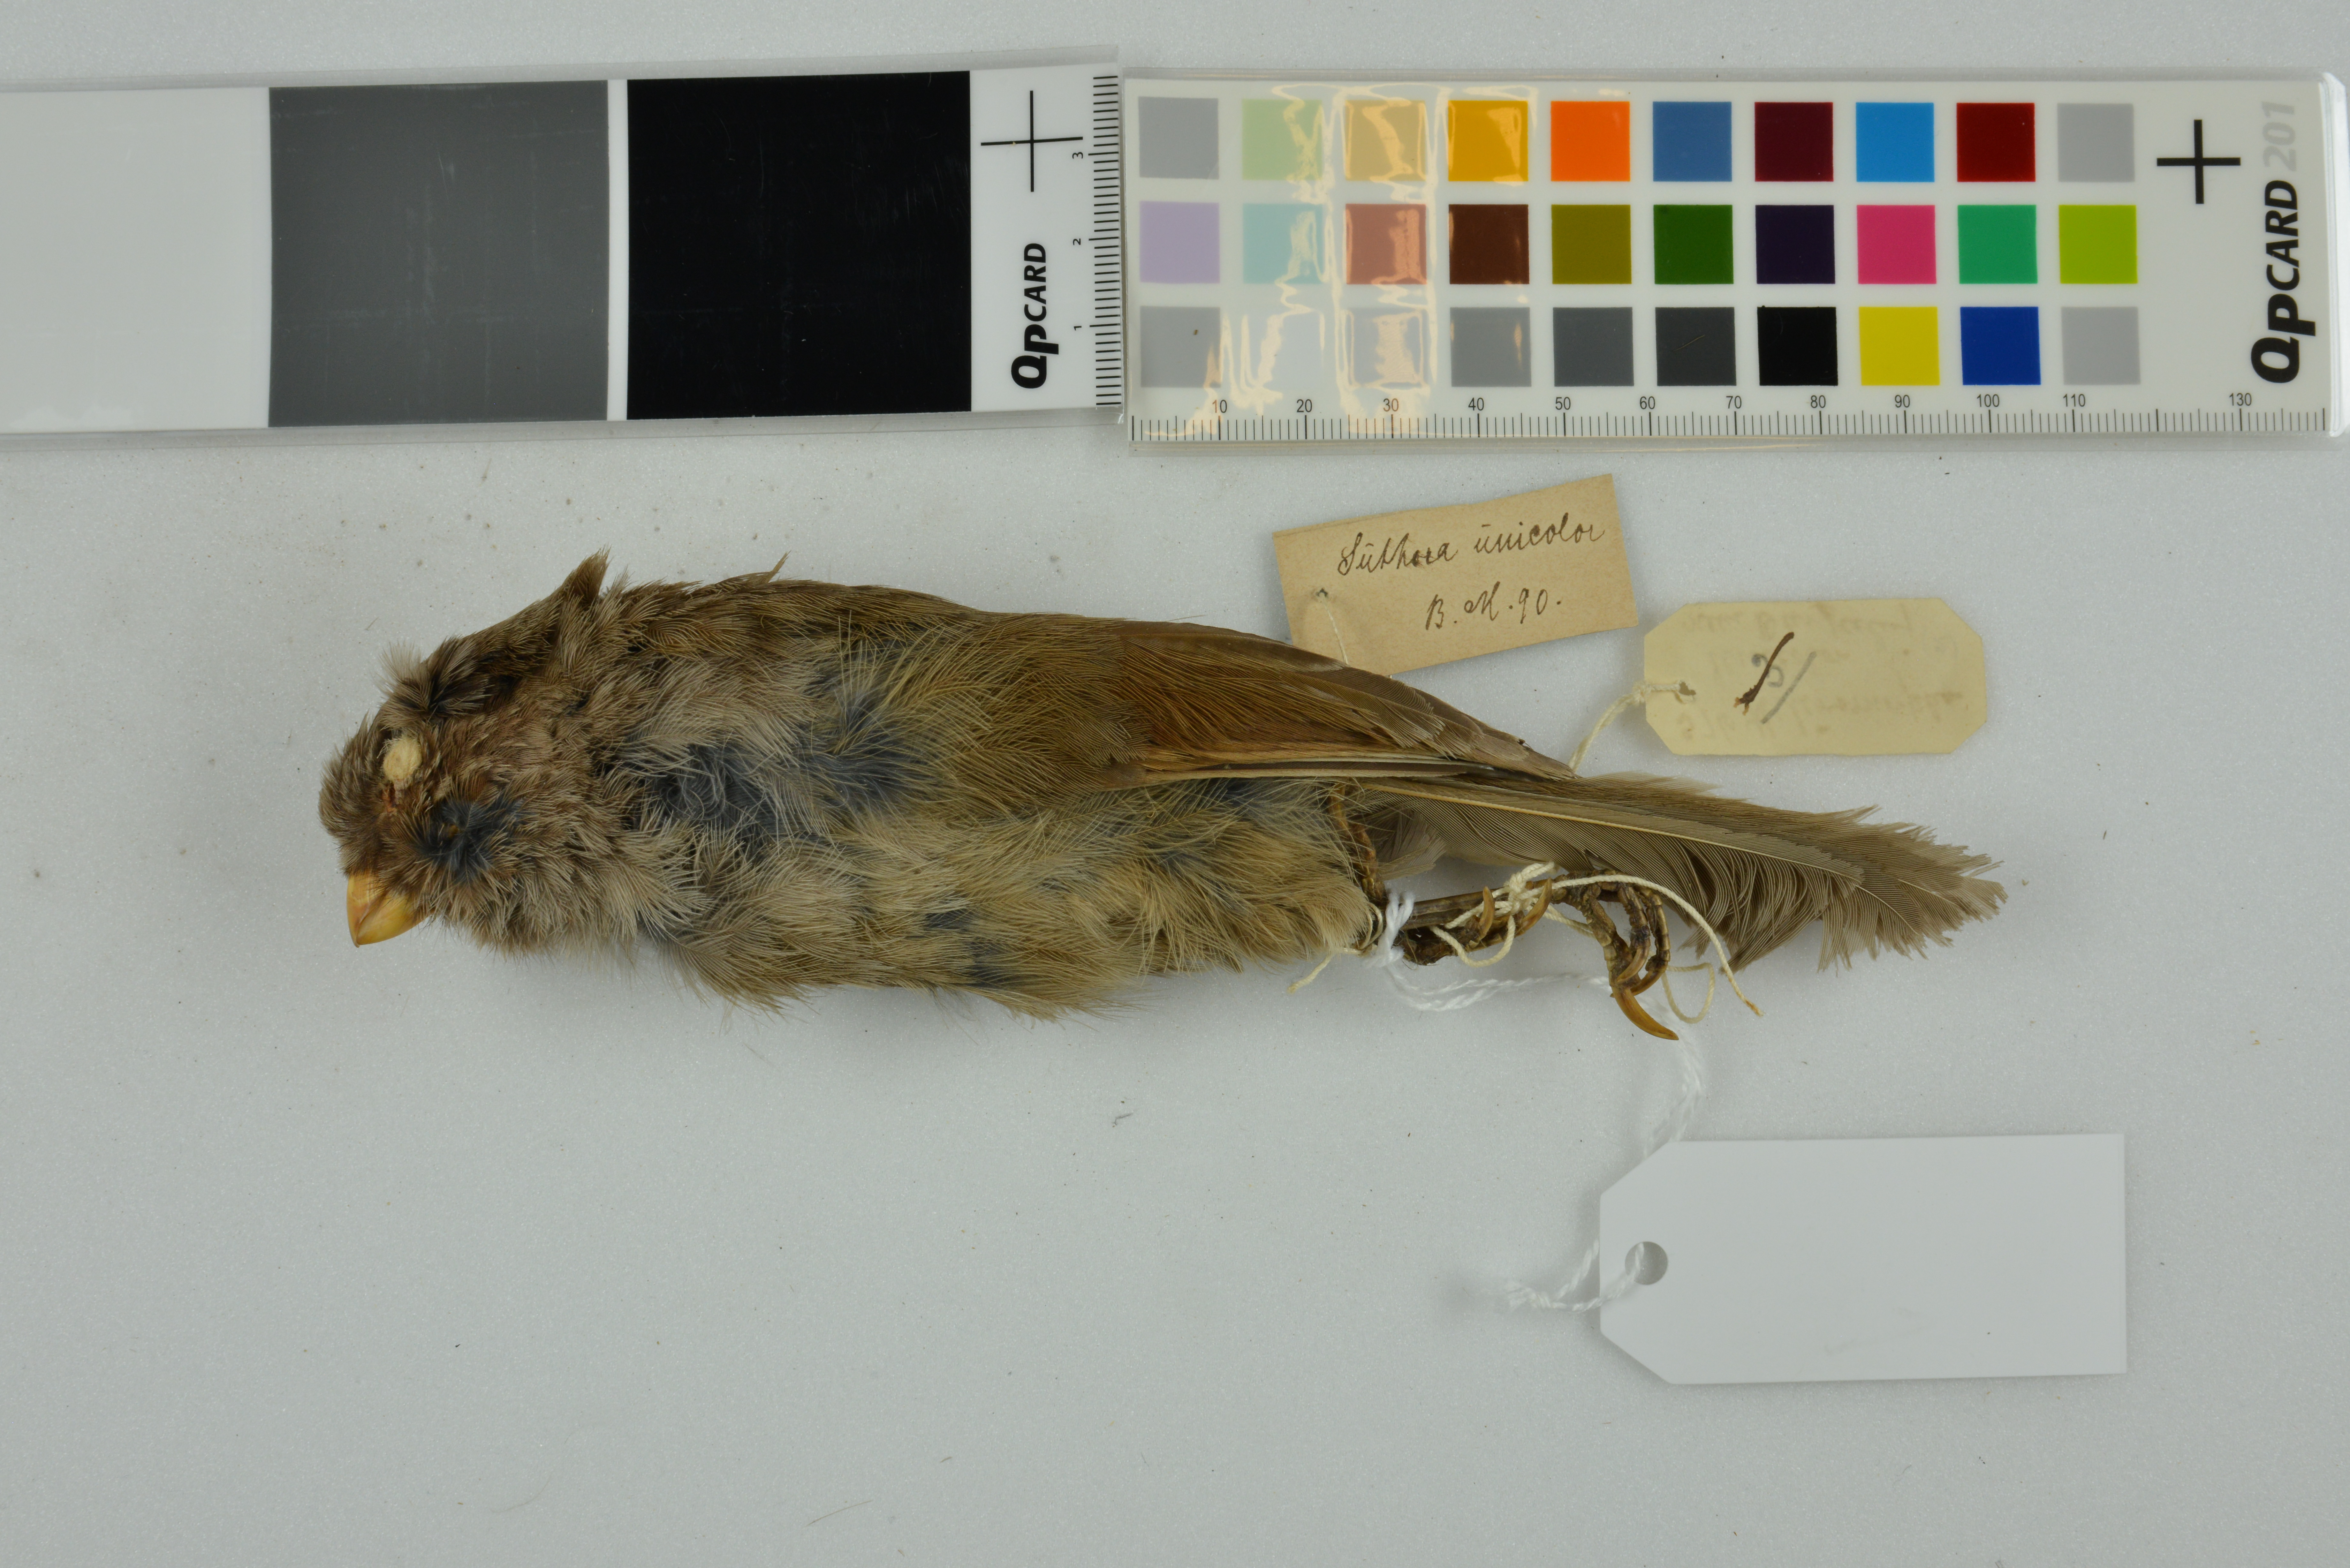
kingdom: Animalia
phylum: Chordata
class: Aves
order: Passeriformes
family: Sylviidae
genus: Cholornis
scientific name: Cholornis unicolor
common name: Brown parrotbill
